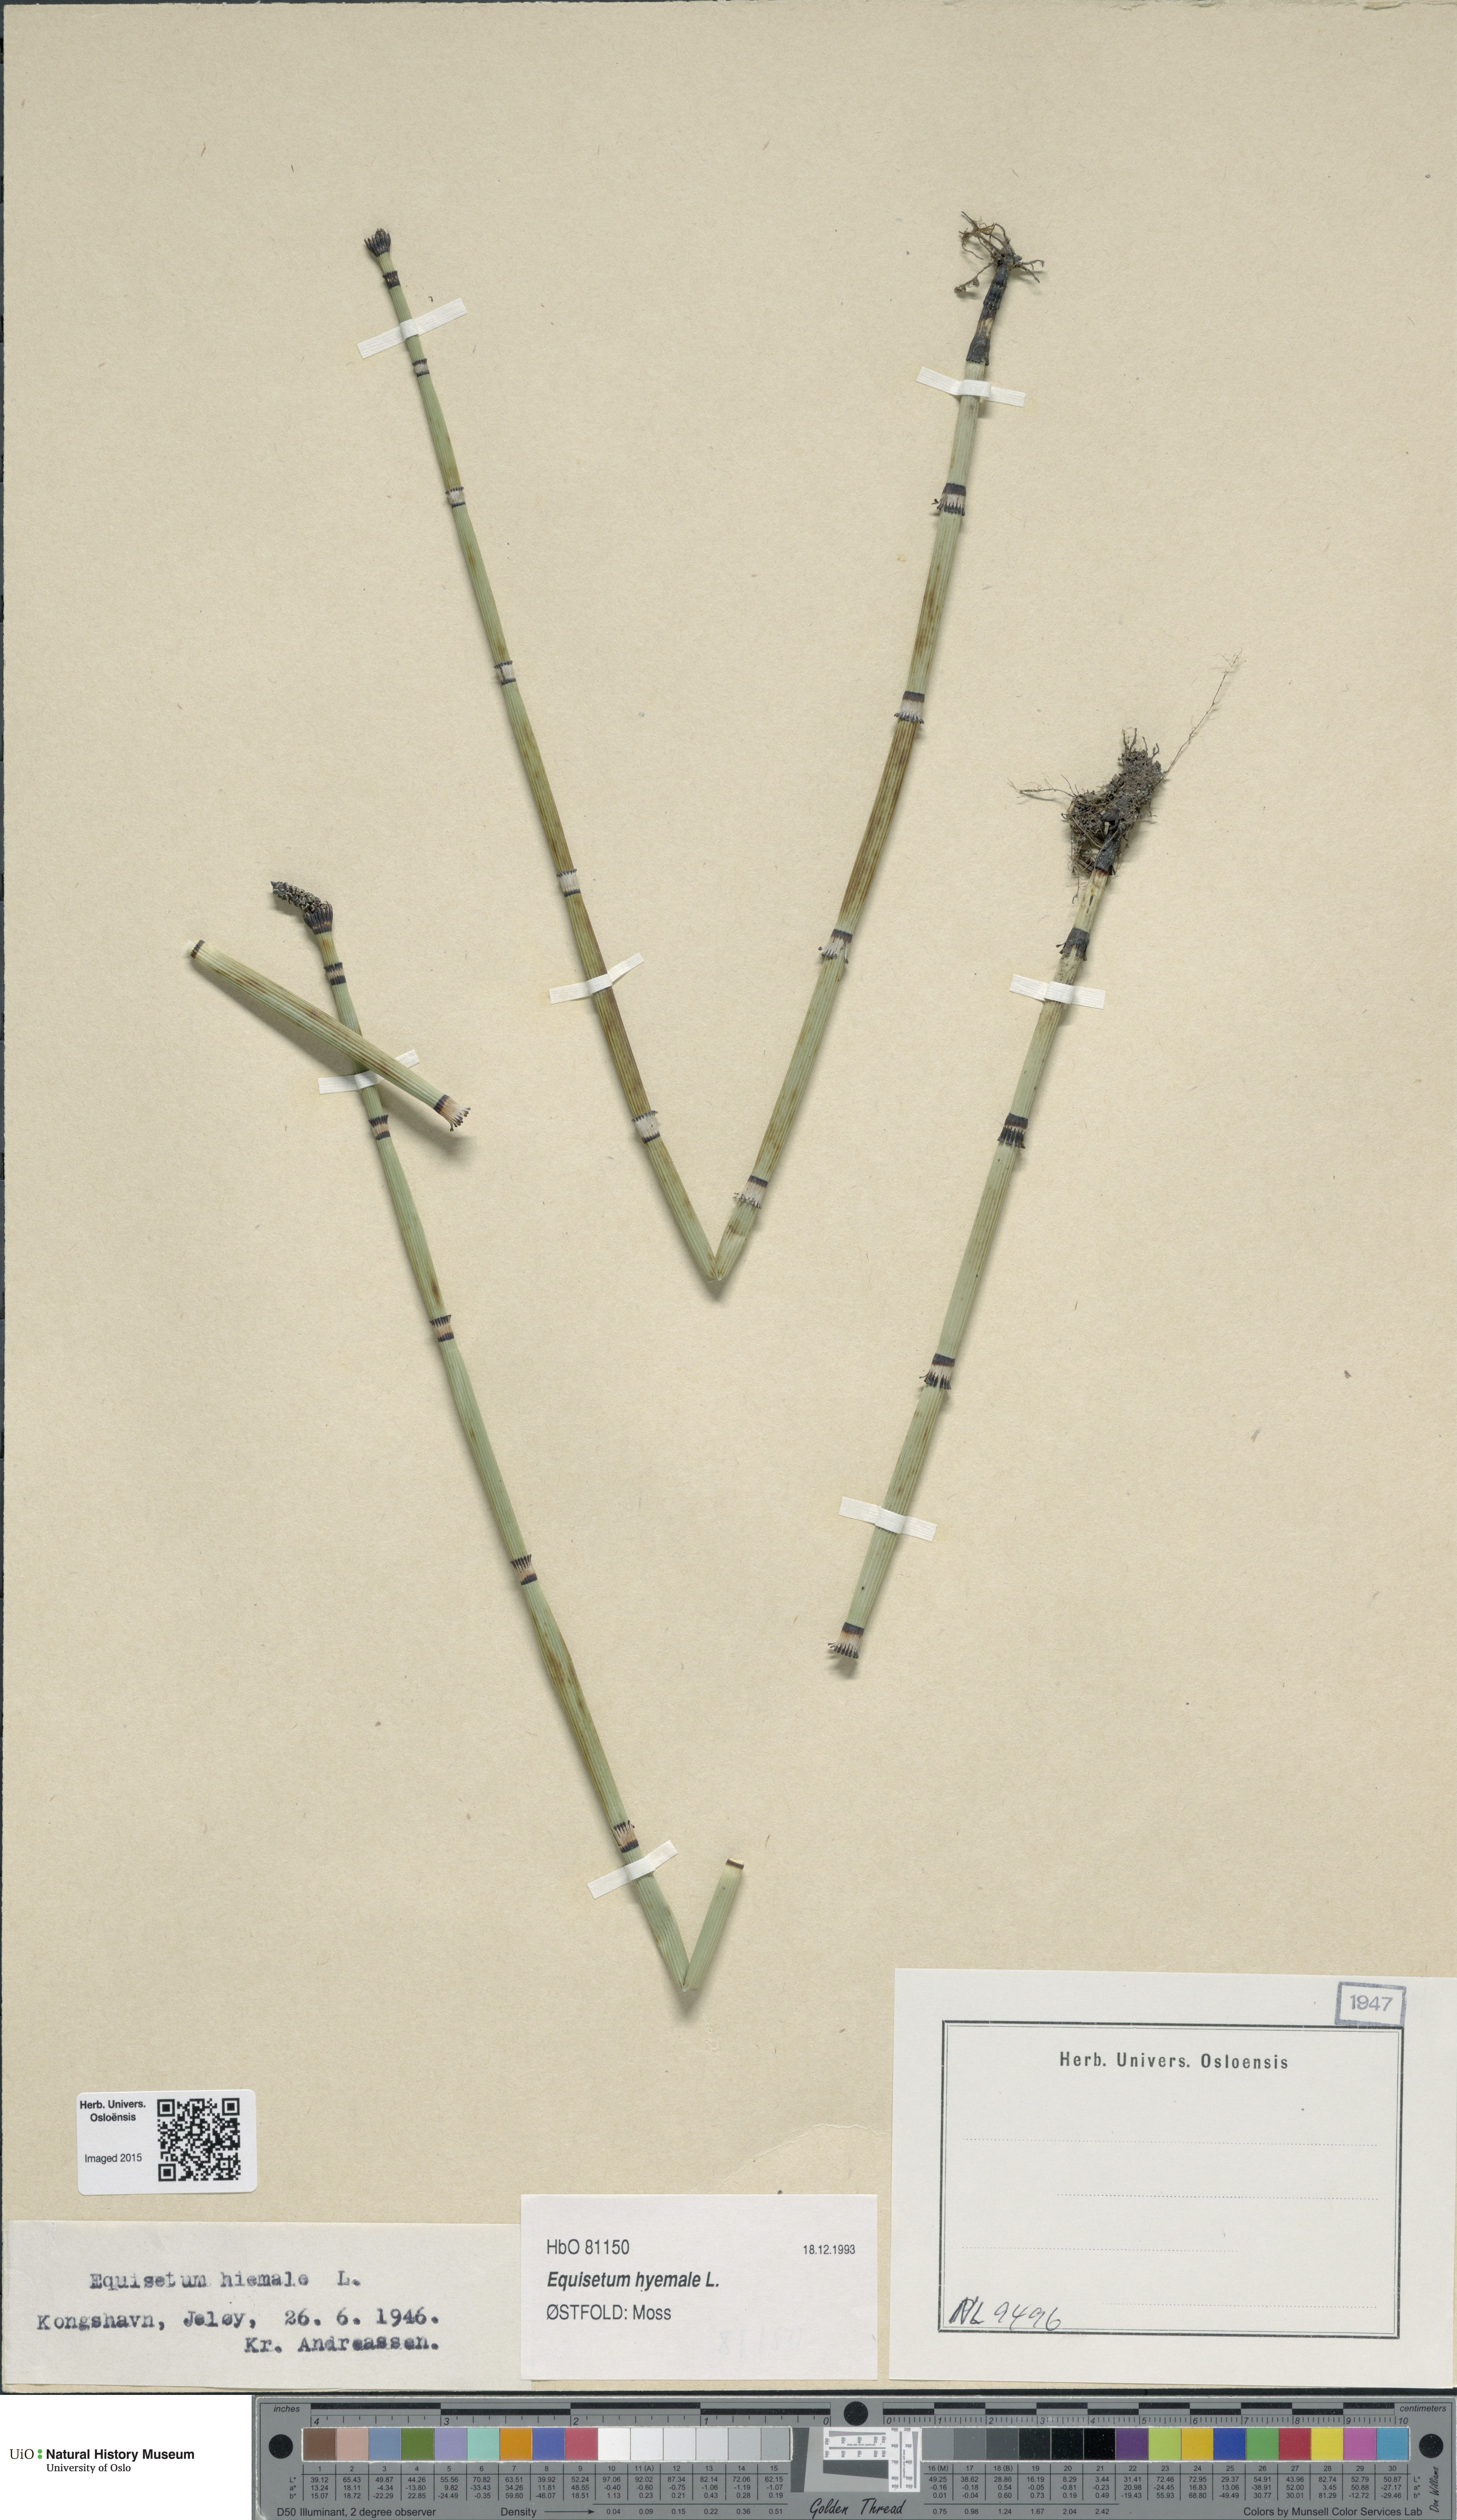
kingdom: Plantae
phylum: Tracheophyta
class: Polypodiopsida
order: Equisetales
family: Equisetaceae
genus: Equisetum
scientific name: Equisetum hyemale
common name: Rough horsetail
